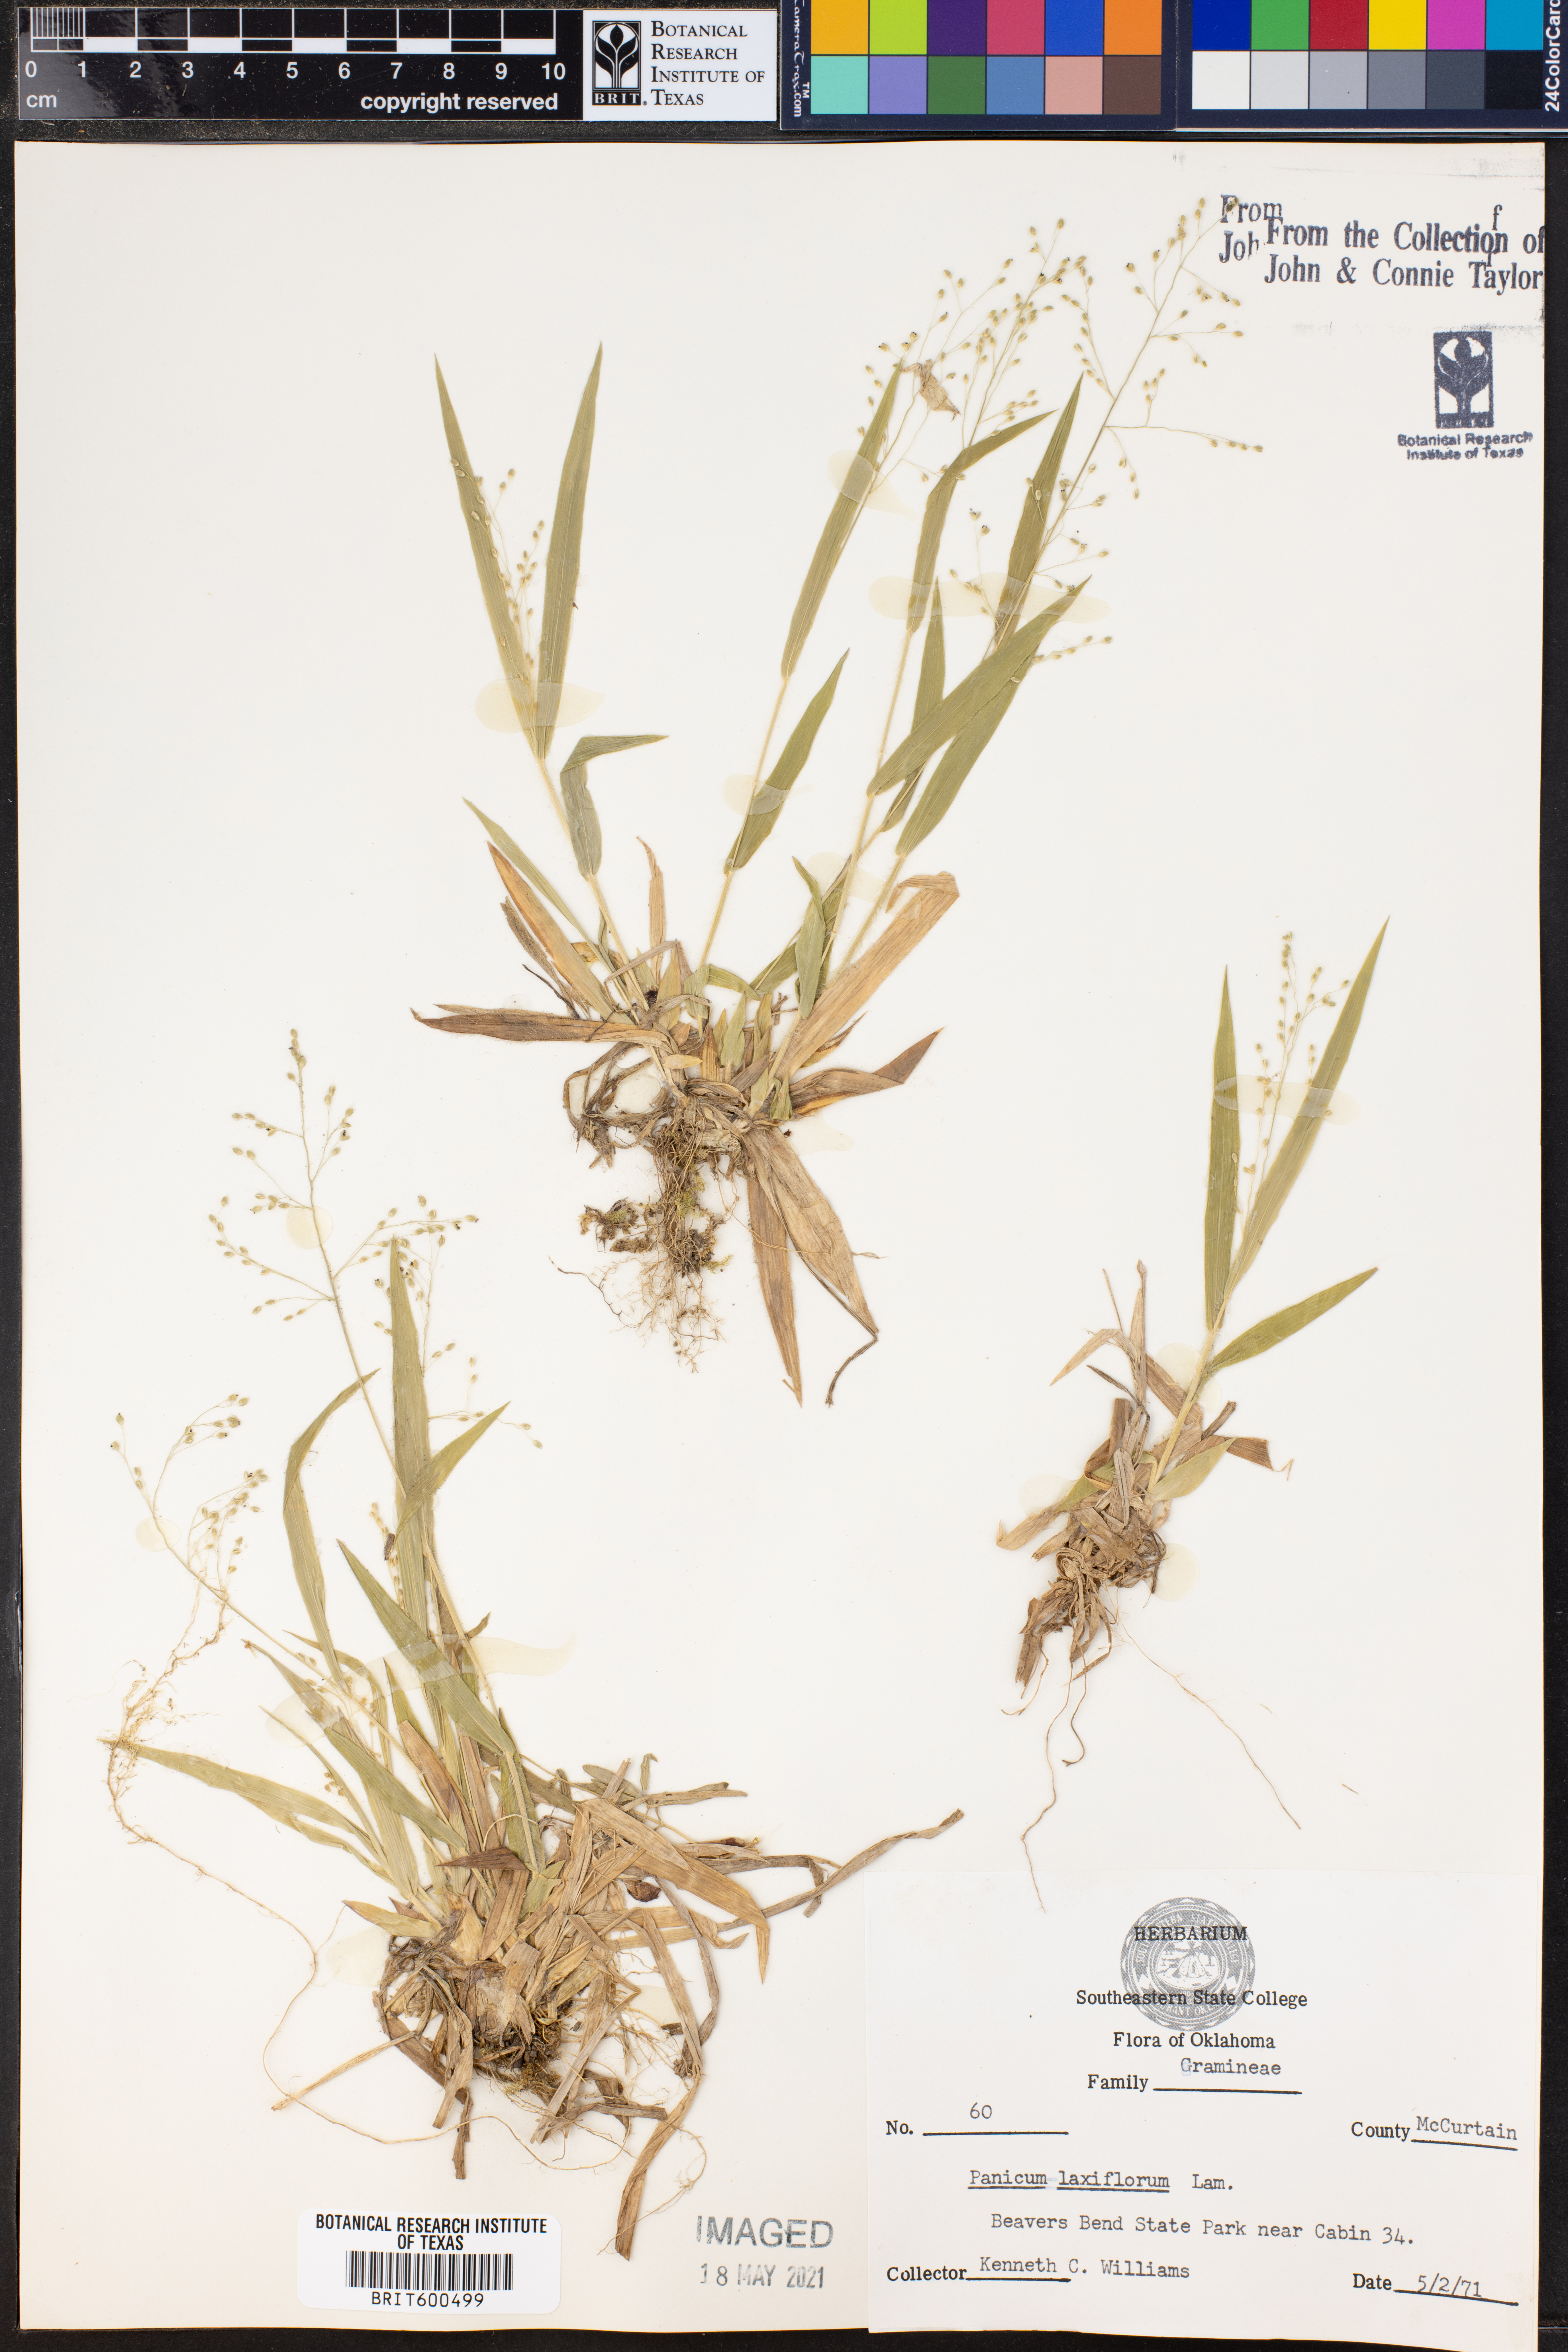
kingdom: Plantae
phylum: Tracheophyta
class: Liliopsida
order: Poales
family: Poaceae
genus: Dichanthelium
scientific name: Dichanthelium laxiflorum
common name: Soft-tuft panic grass
